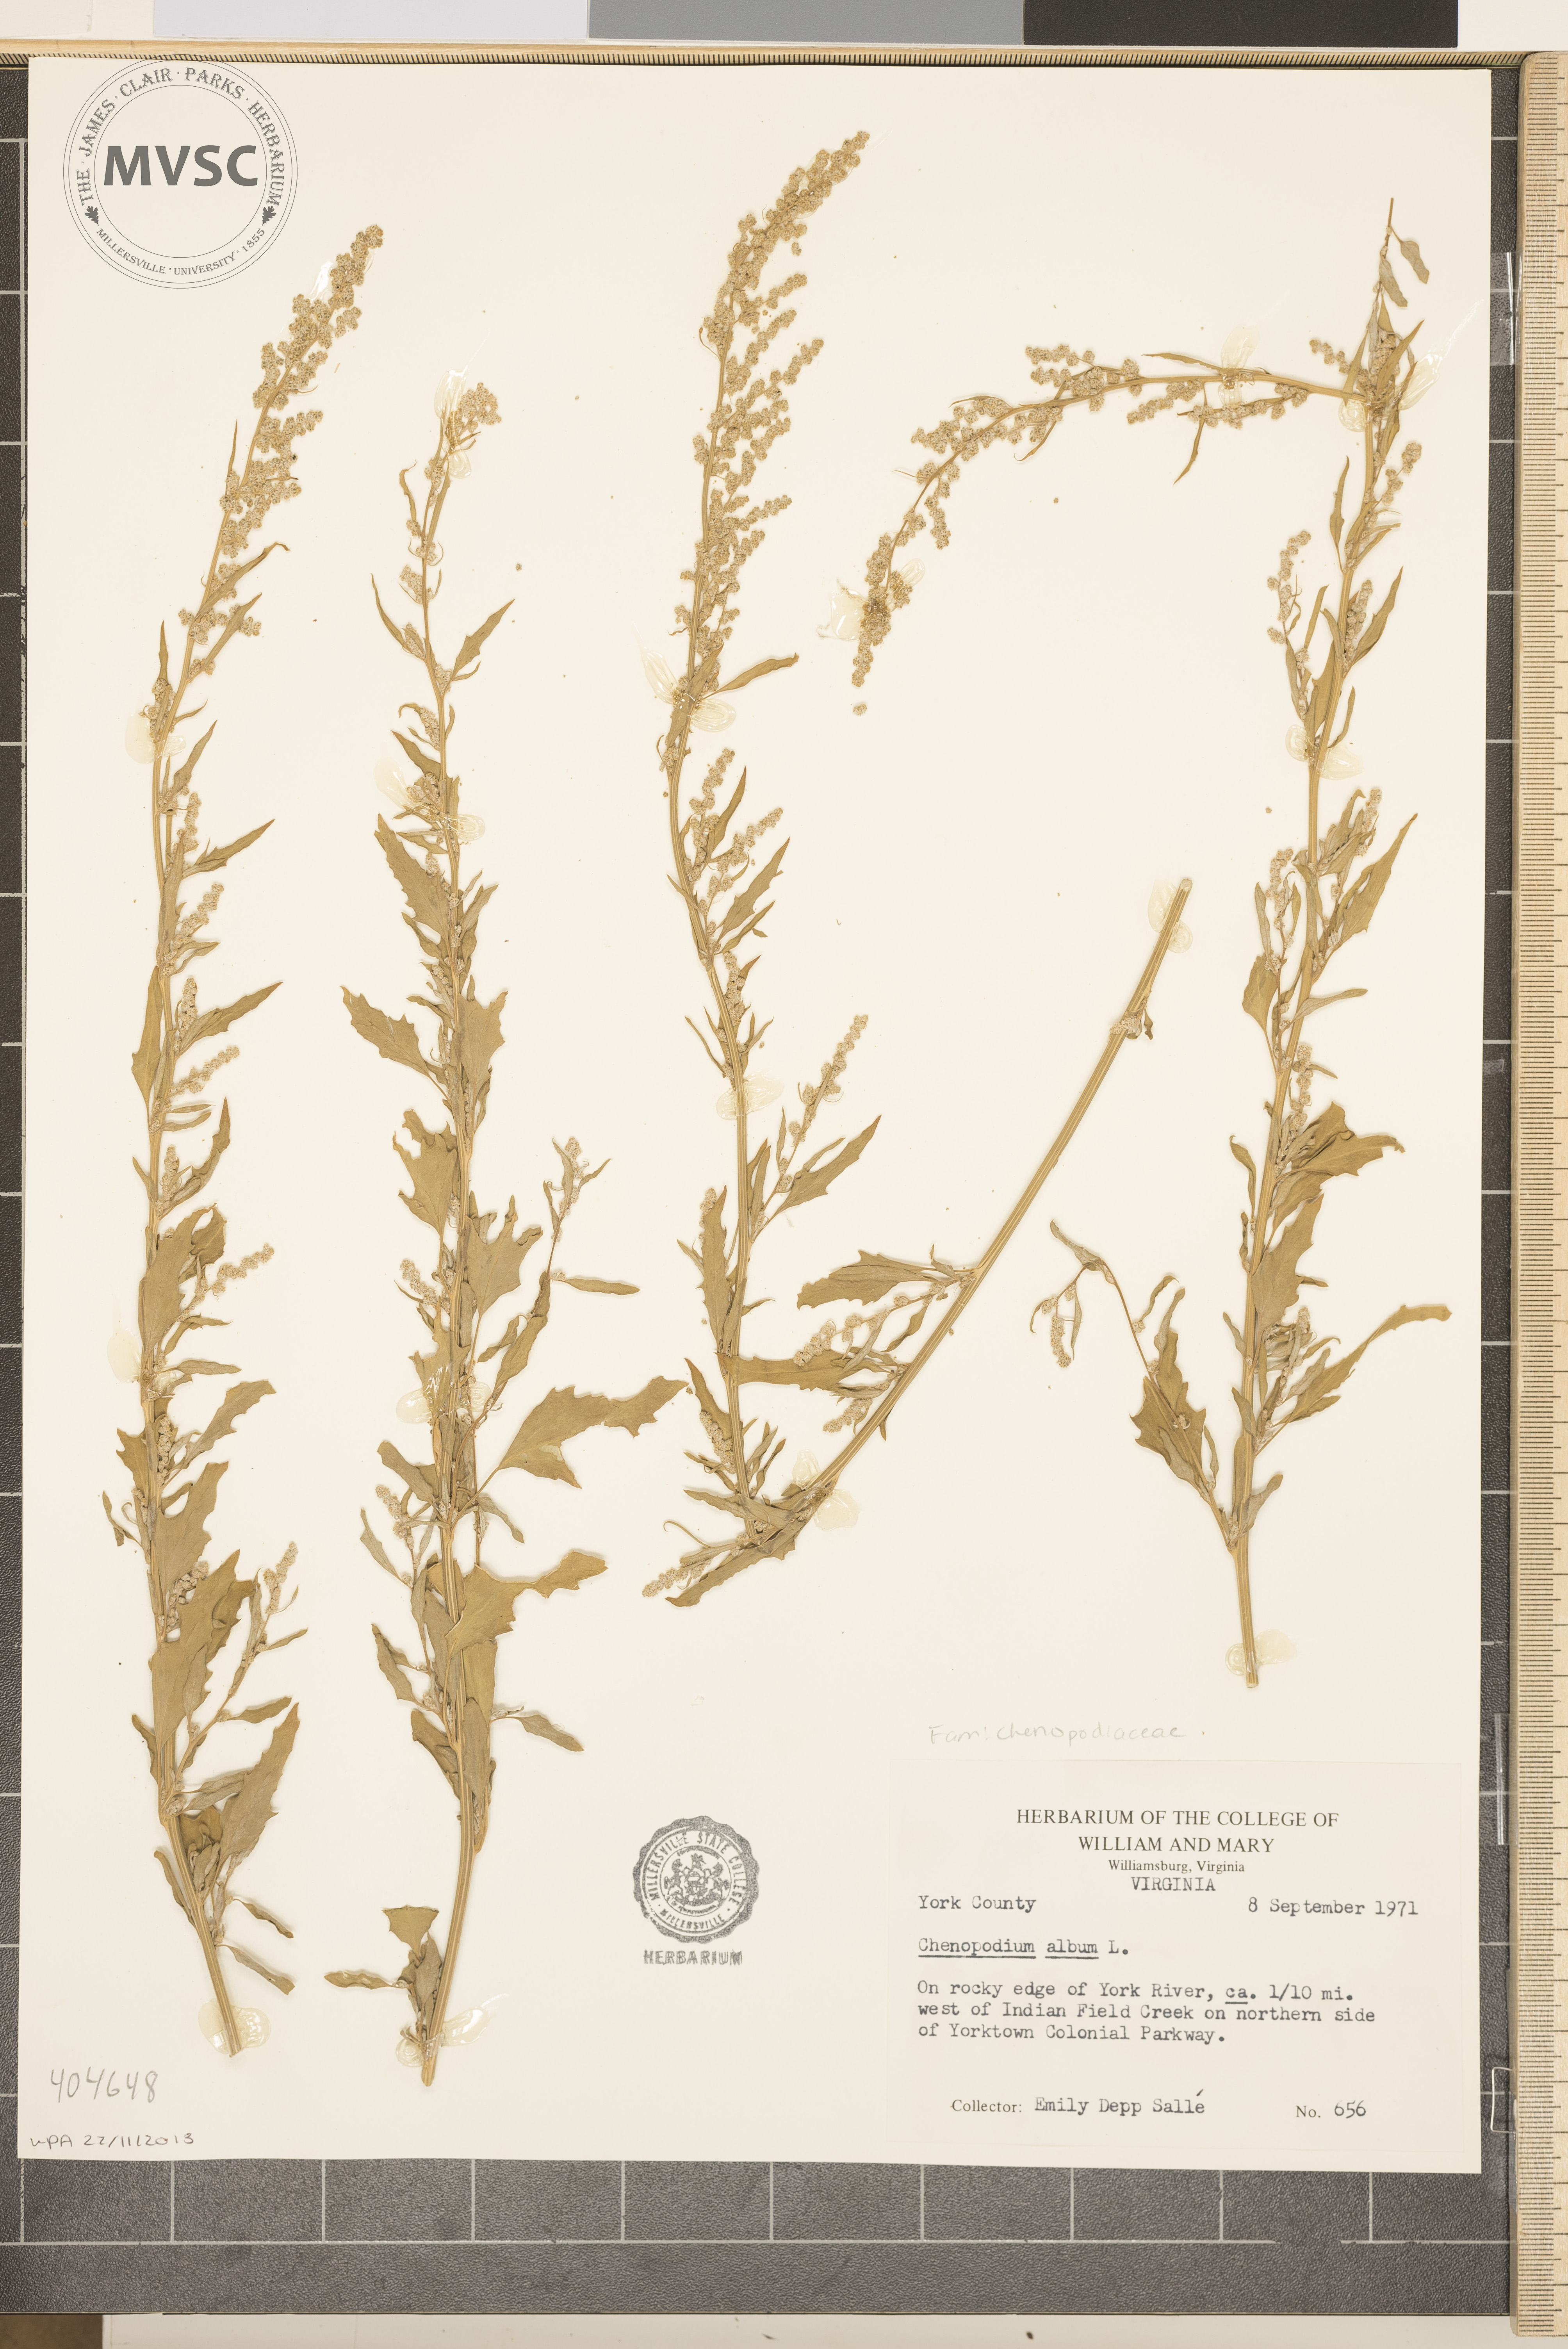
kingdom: Plantae
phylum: Tracheophyta
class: Magnoliopsida
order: Caryophyllales
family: Amaranthaceae
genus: Chenopodium
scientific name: Chenopodium album
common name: Fat-hen
